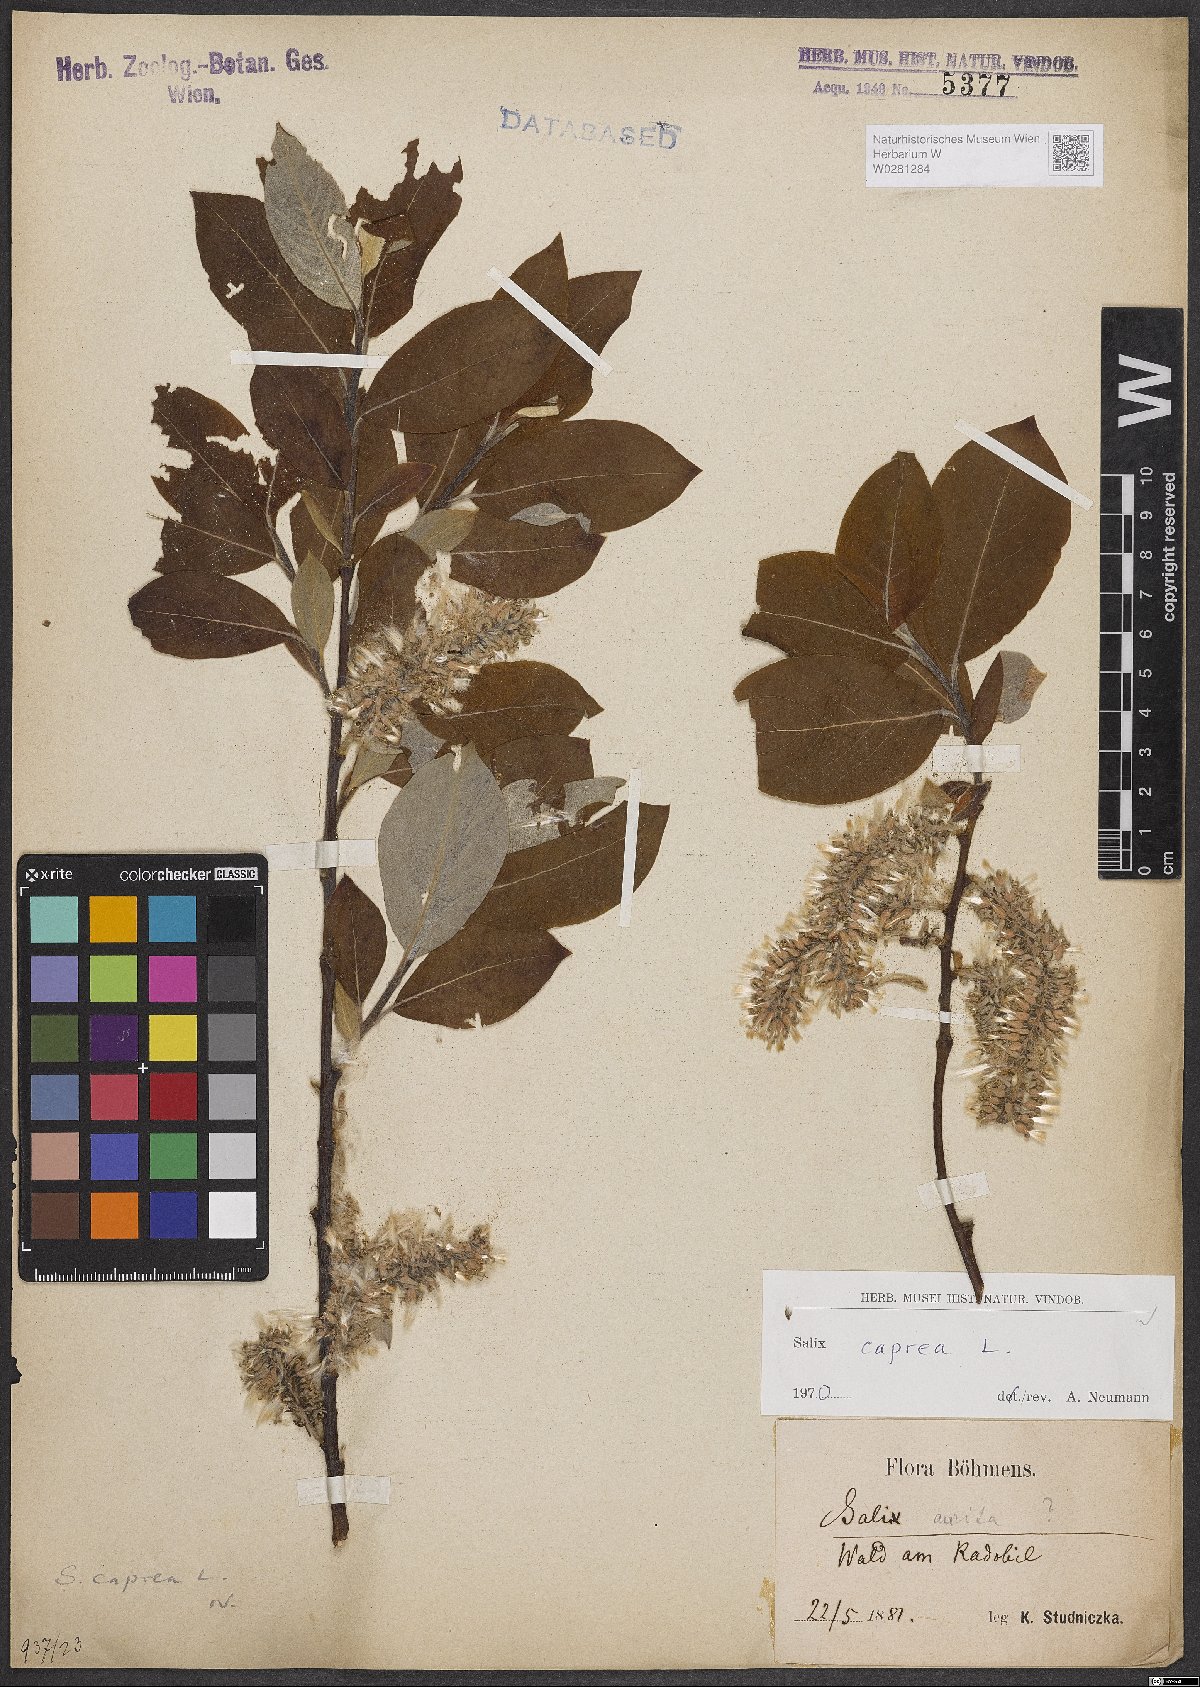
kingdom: Plantae
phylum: Tracheophyta
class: Magnoliopsida
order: Malpighiales
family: Salicaceae
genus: Salix
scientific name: Salix caprea
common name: Goat willow
